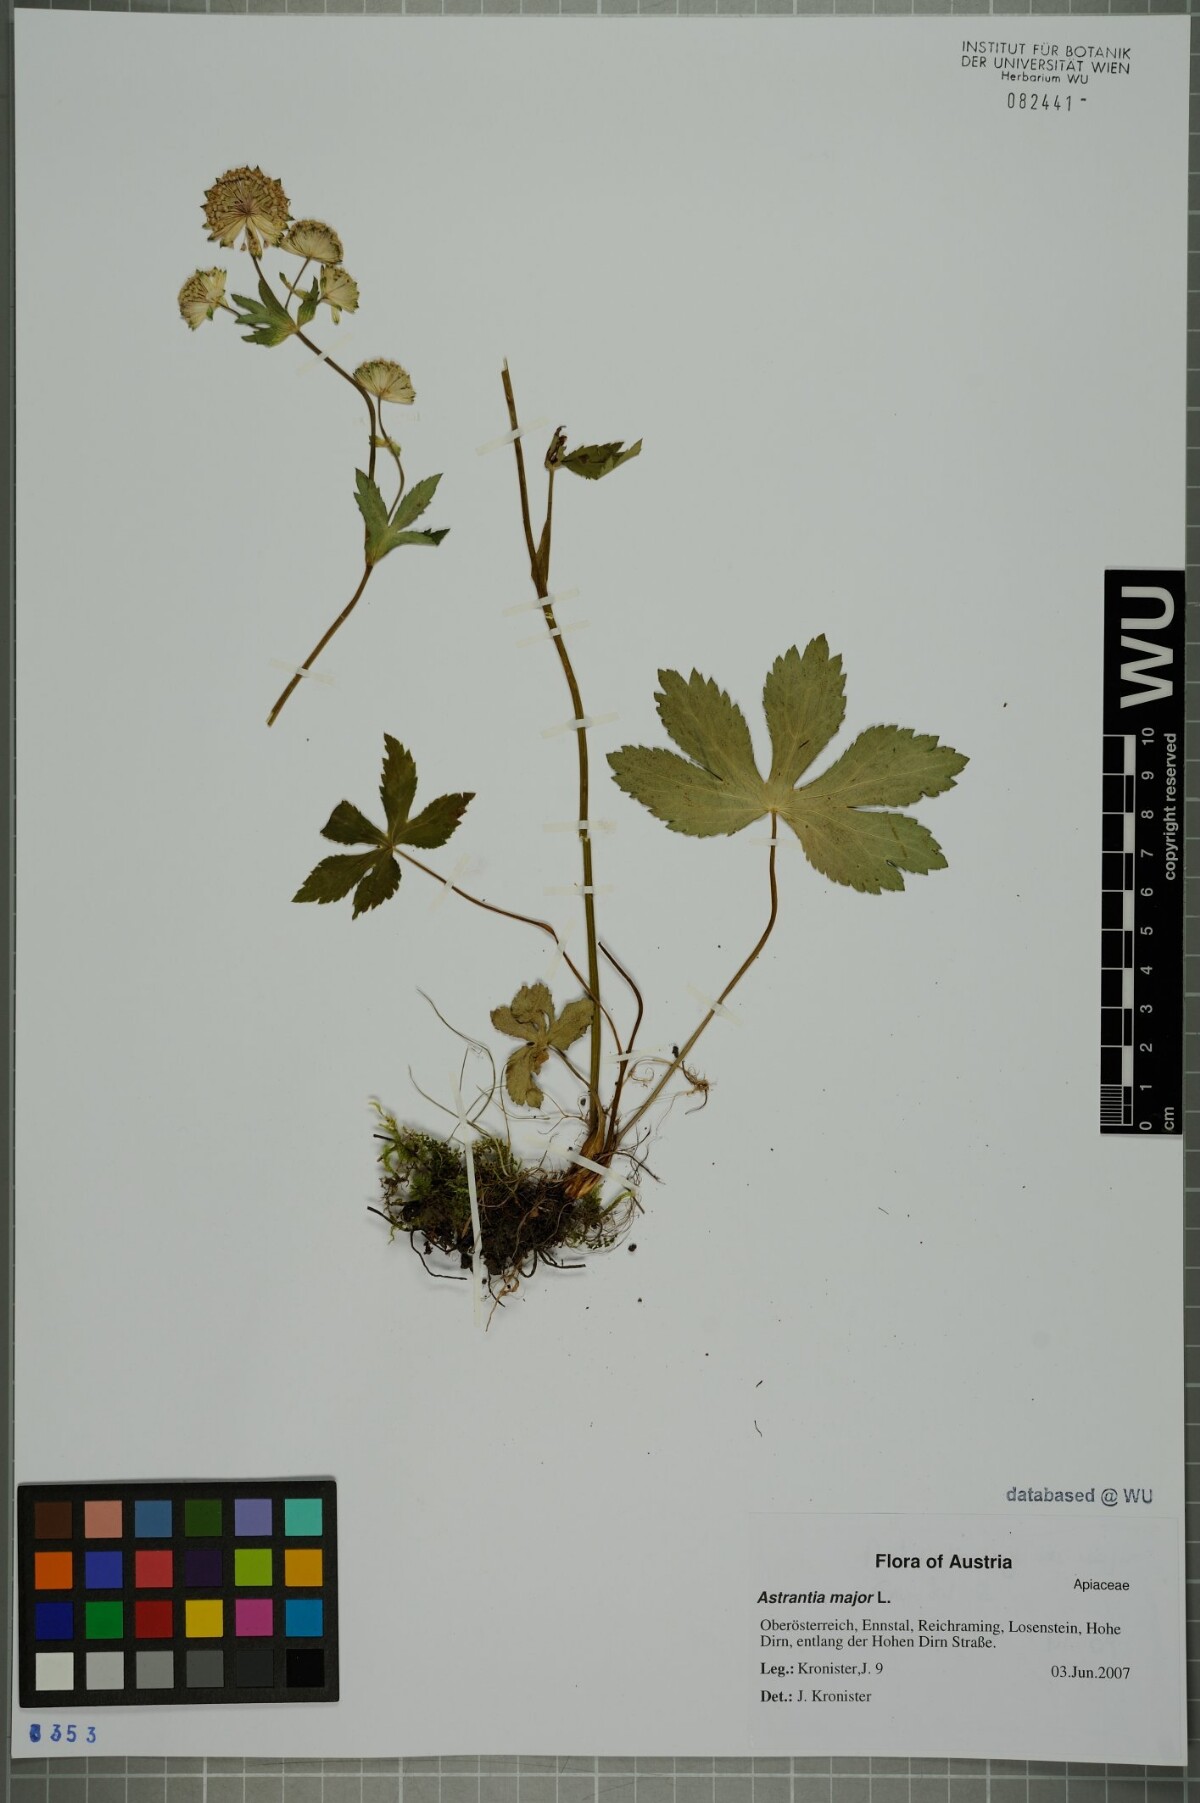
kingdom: Plantae
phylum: Tracheophyta
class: Magnoliopsida
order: Apiales
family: Apiaceae
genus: Astrantia
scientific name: Astrantia major
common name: Greater masterwort
